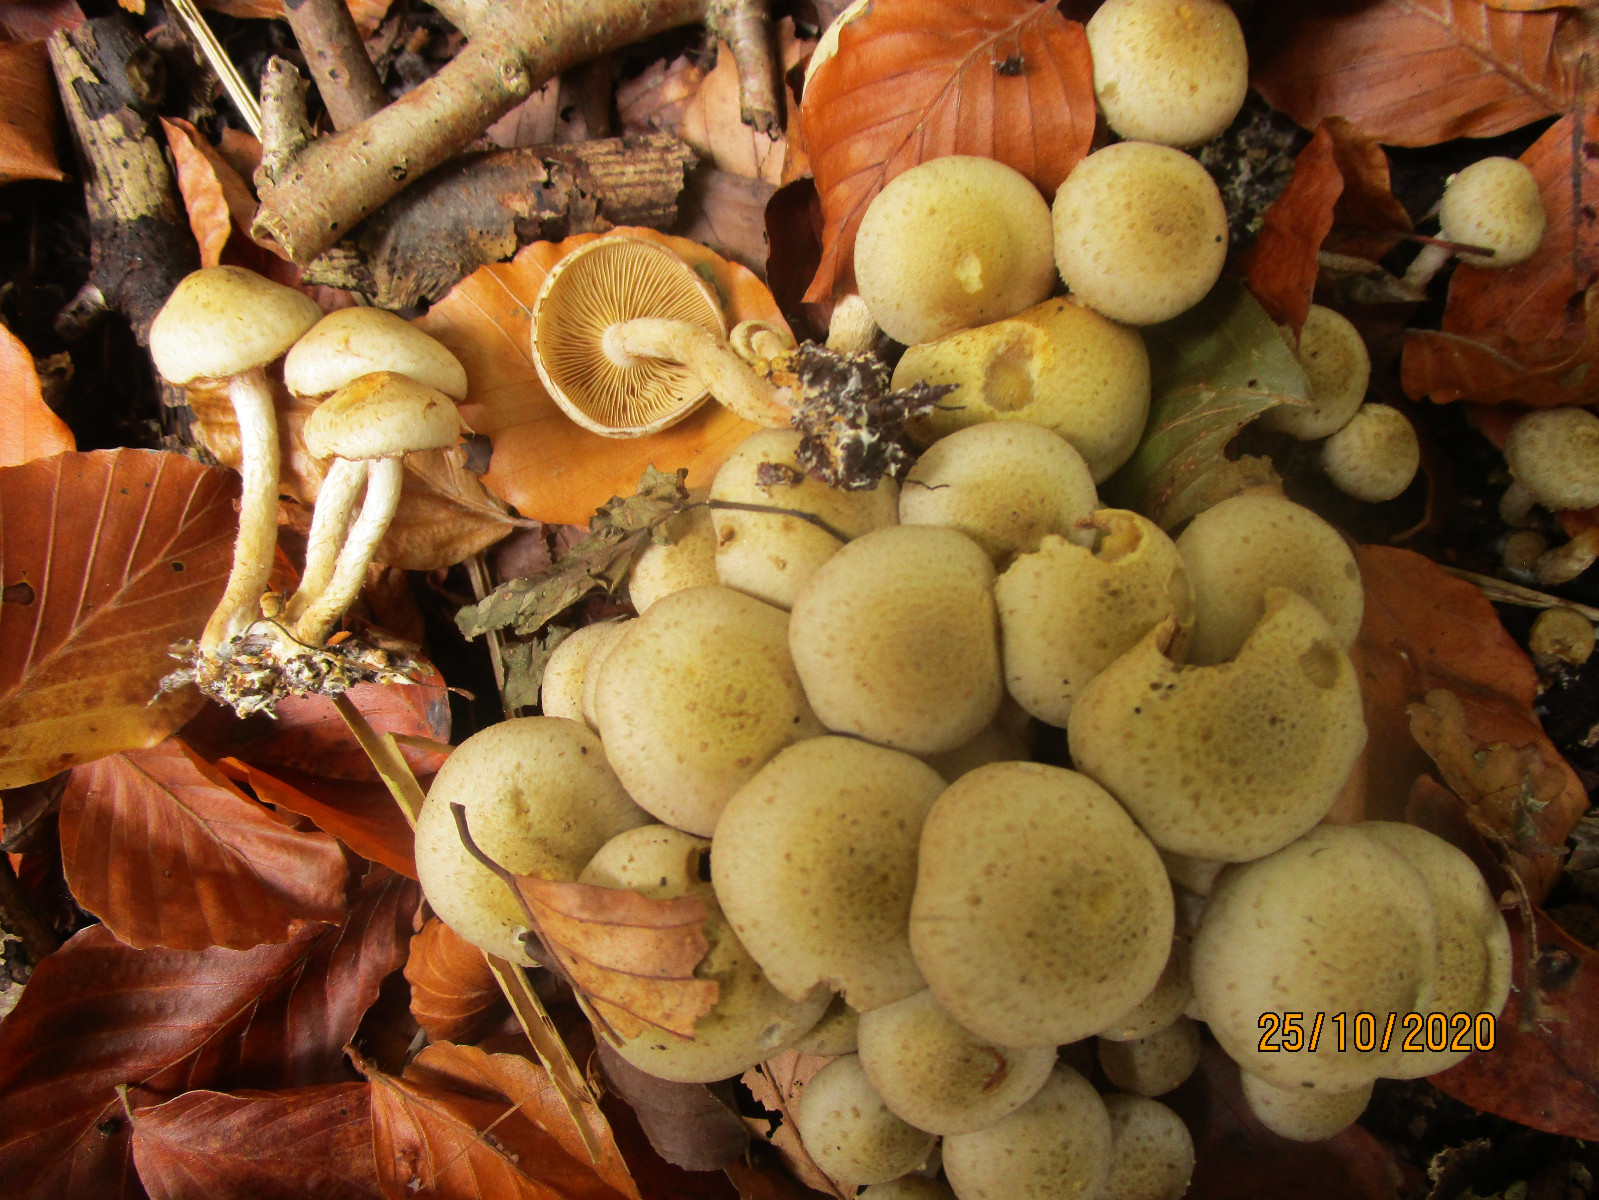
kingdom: Fungi
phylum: Basidiomycota
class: Agaricomycetes
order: Agaricales
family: Strophariaceae
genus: Pholiota
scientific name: Pholiota gummosa
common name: grøngul skælhat
